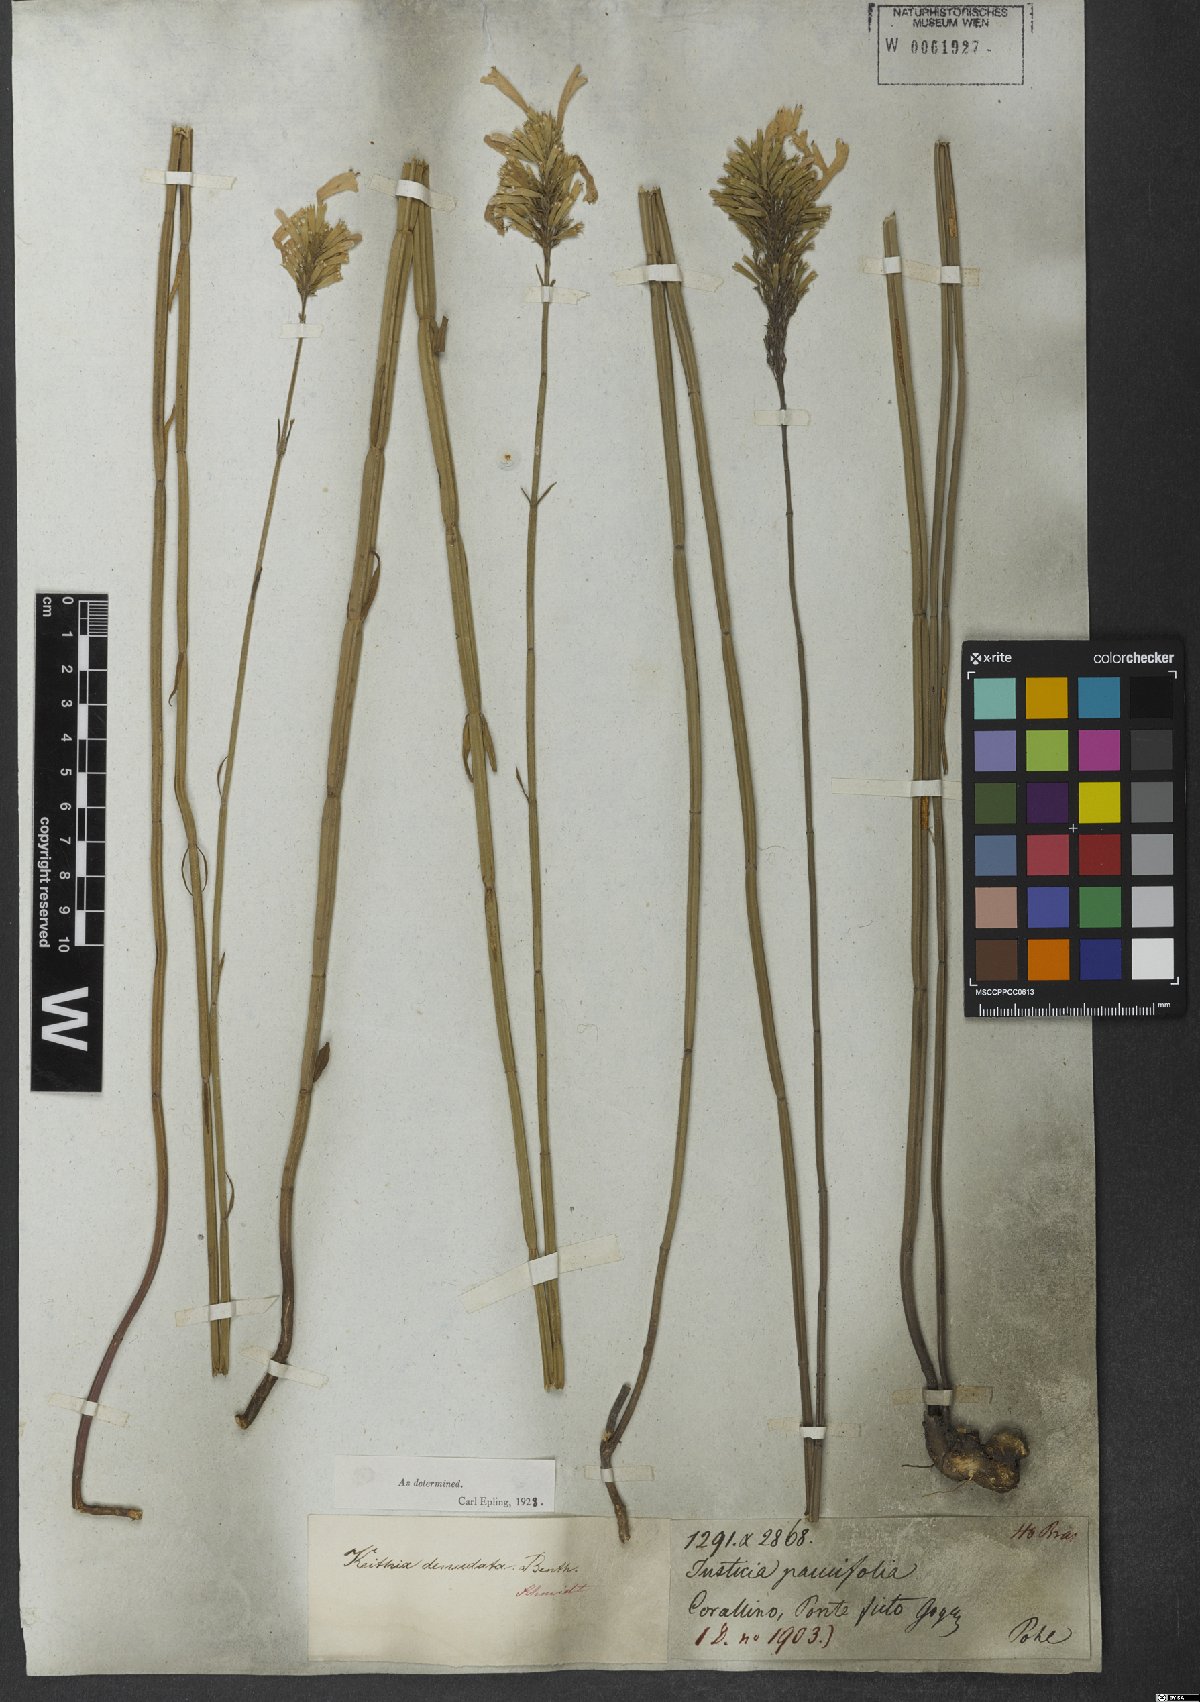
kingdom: Plantae
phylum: Tracheophyta
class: Magnoliopsida
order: Lamiales
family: Lamiaceae
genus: Rhabdocaulon
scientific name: Rhabdocaulon denudatum
